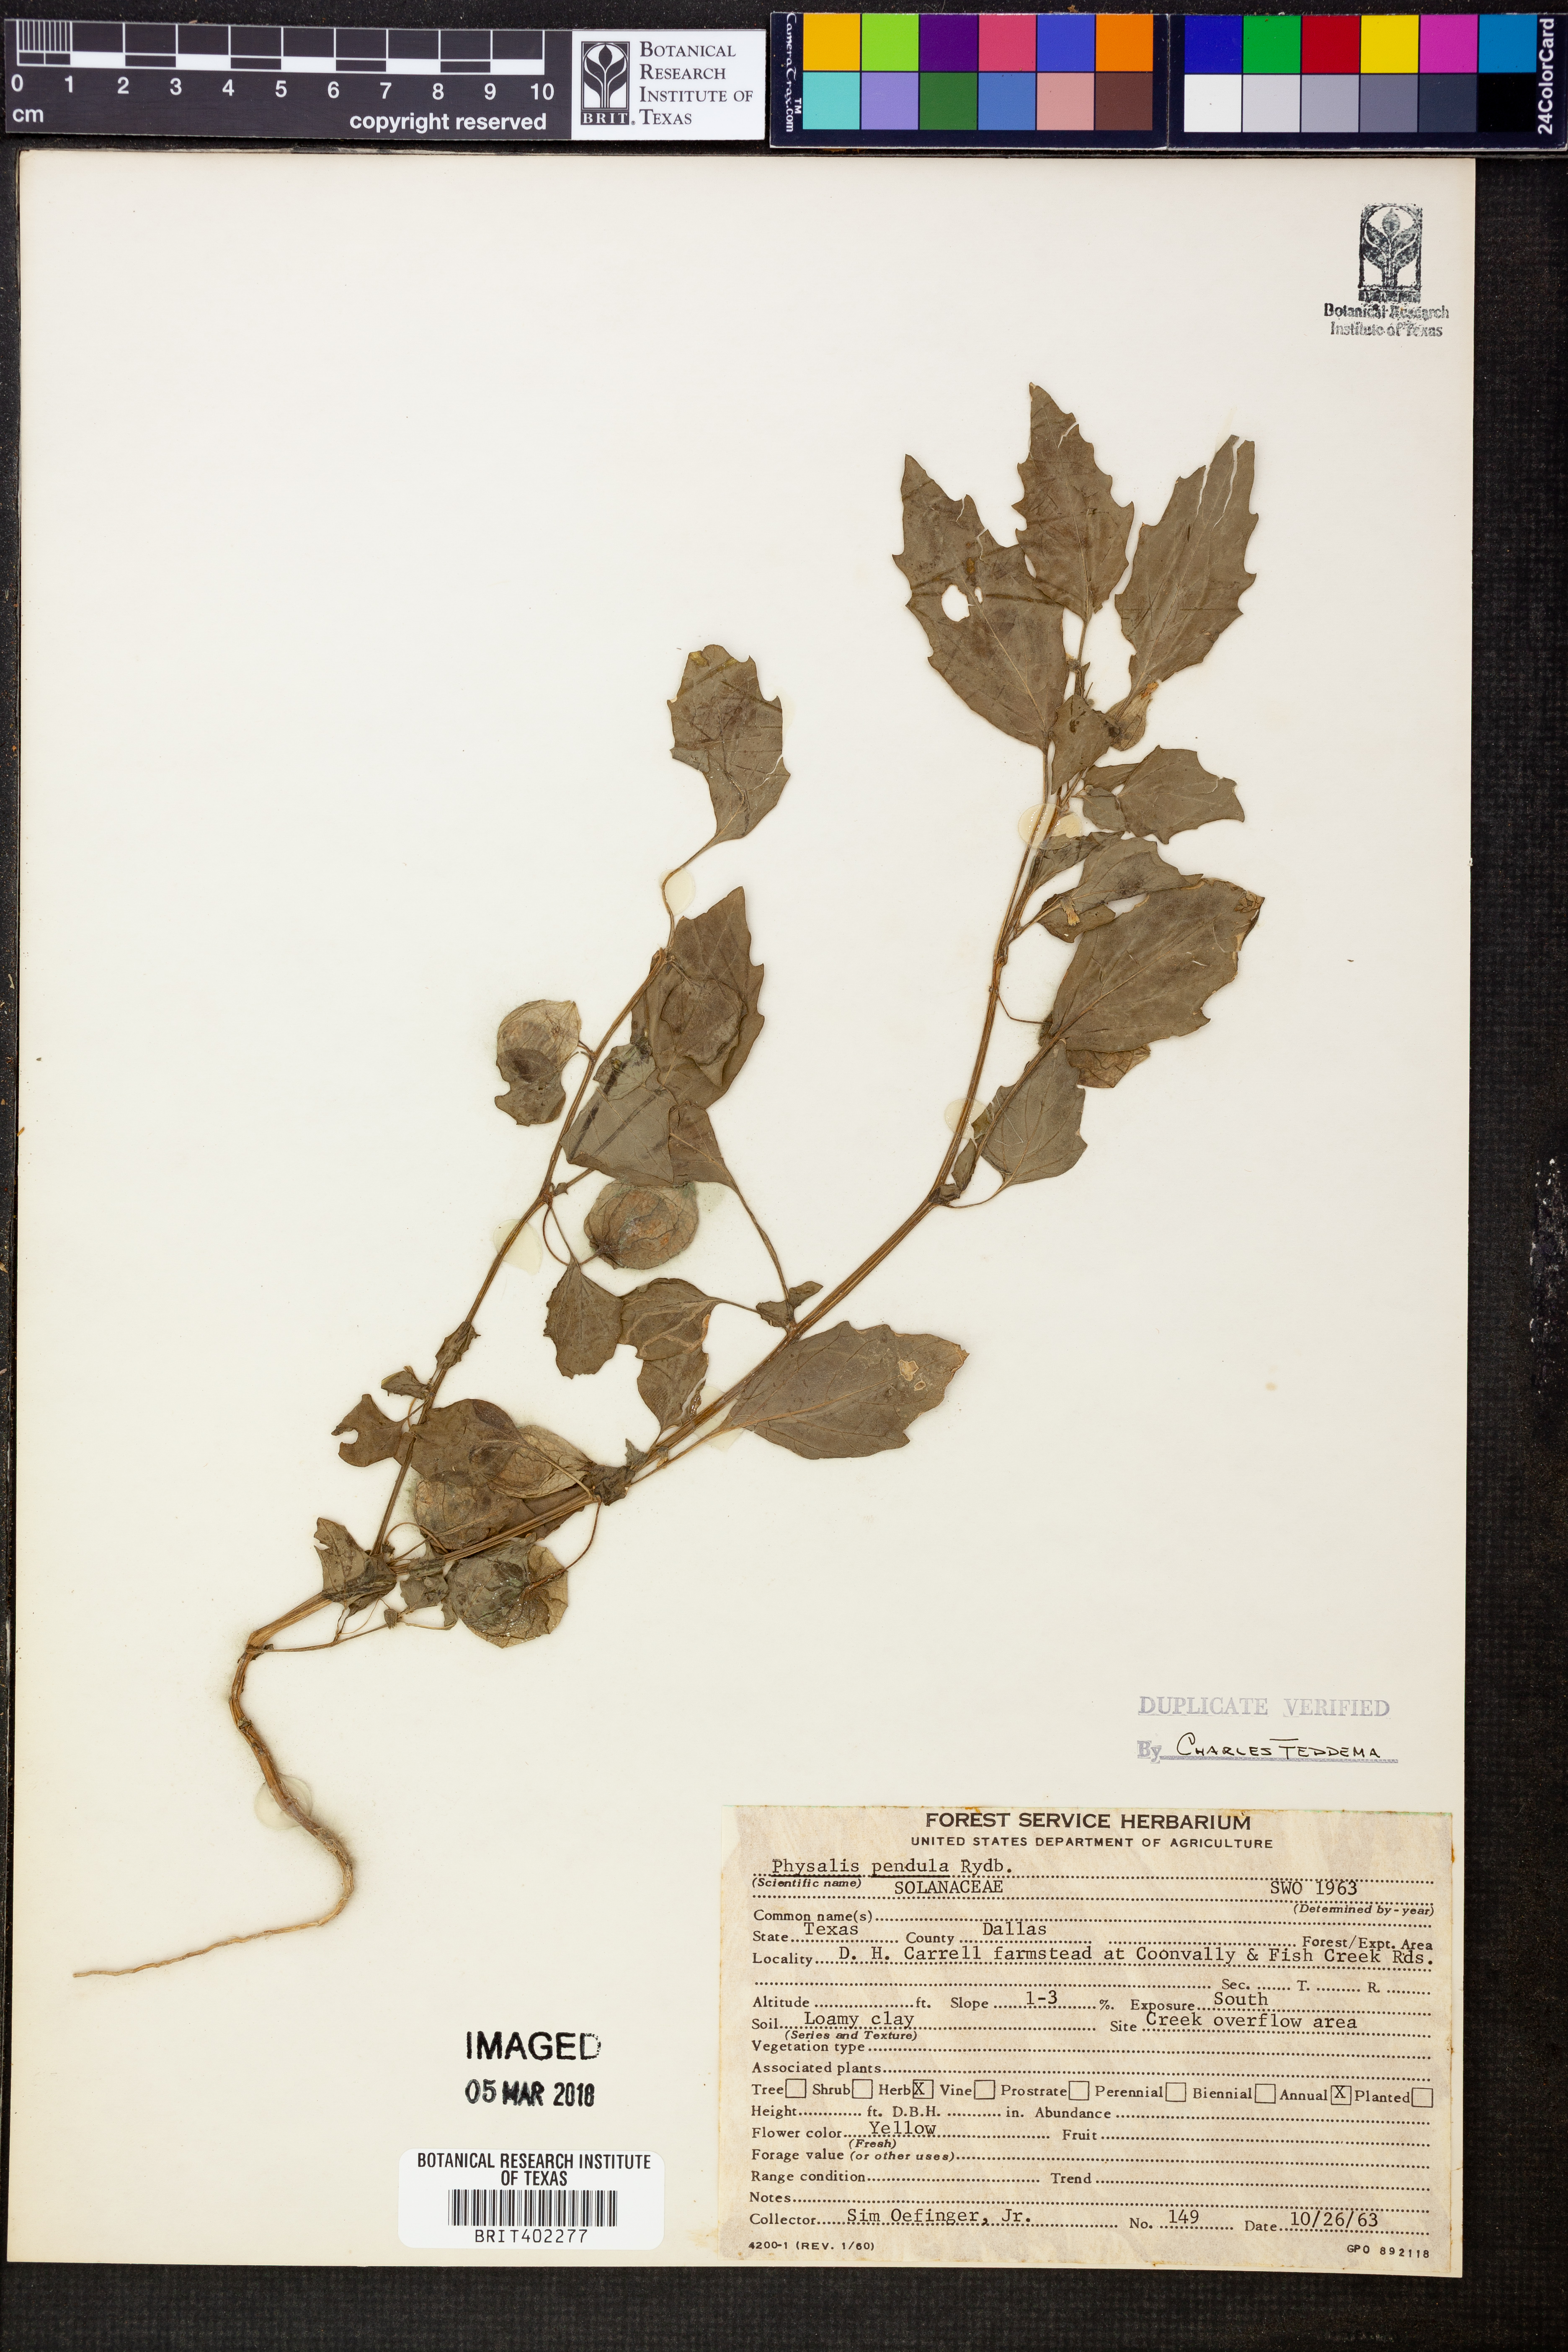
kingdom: Plantae
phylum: Tracheophyta
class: Magnoliopsida
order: Solanales
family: Solanaceae
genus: Physalis
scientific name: Physalis angulata
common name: Angular winter-cherry
